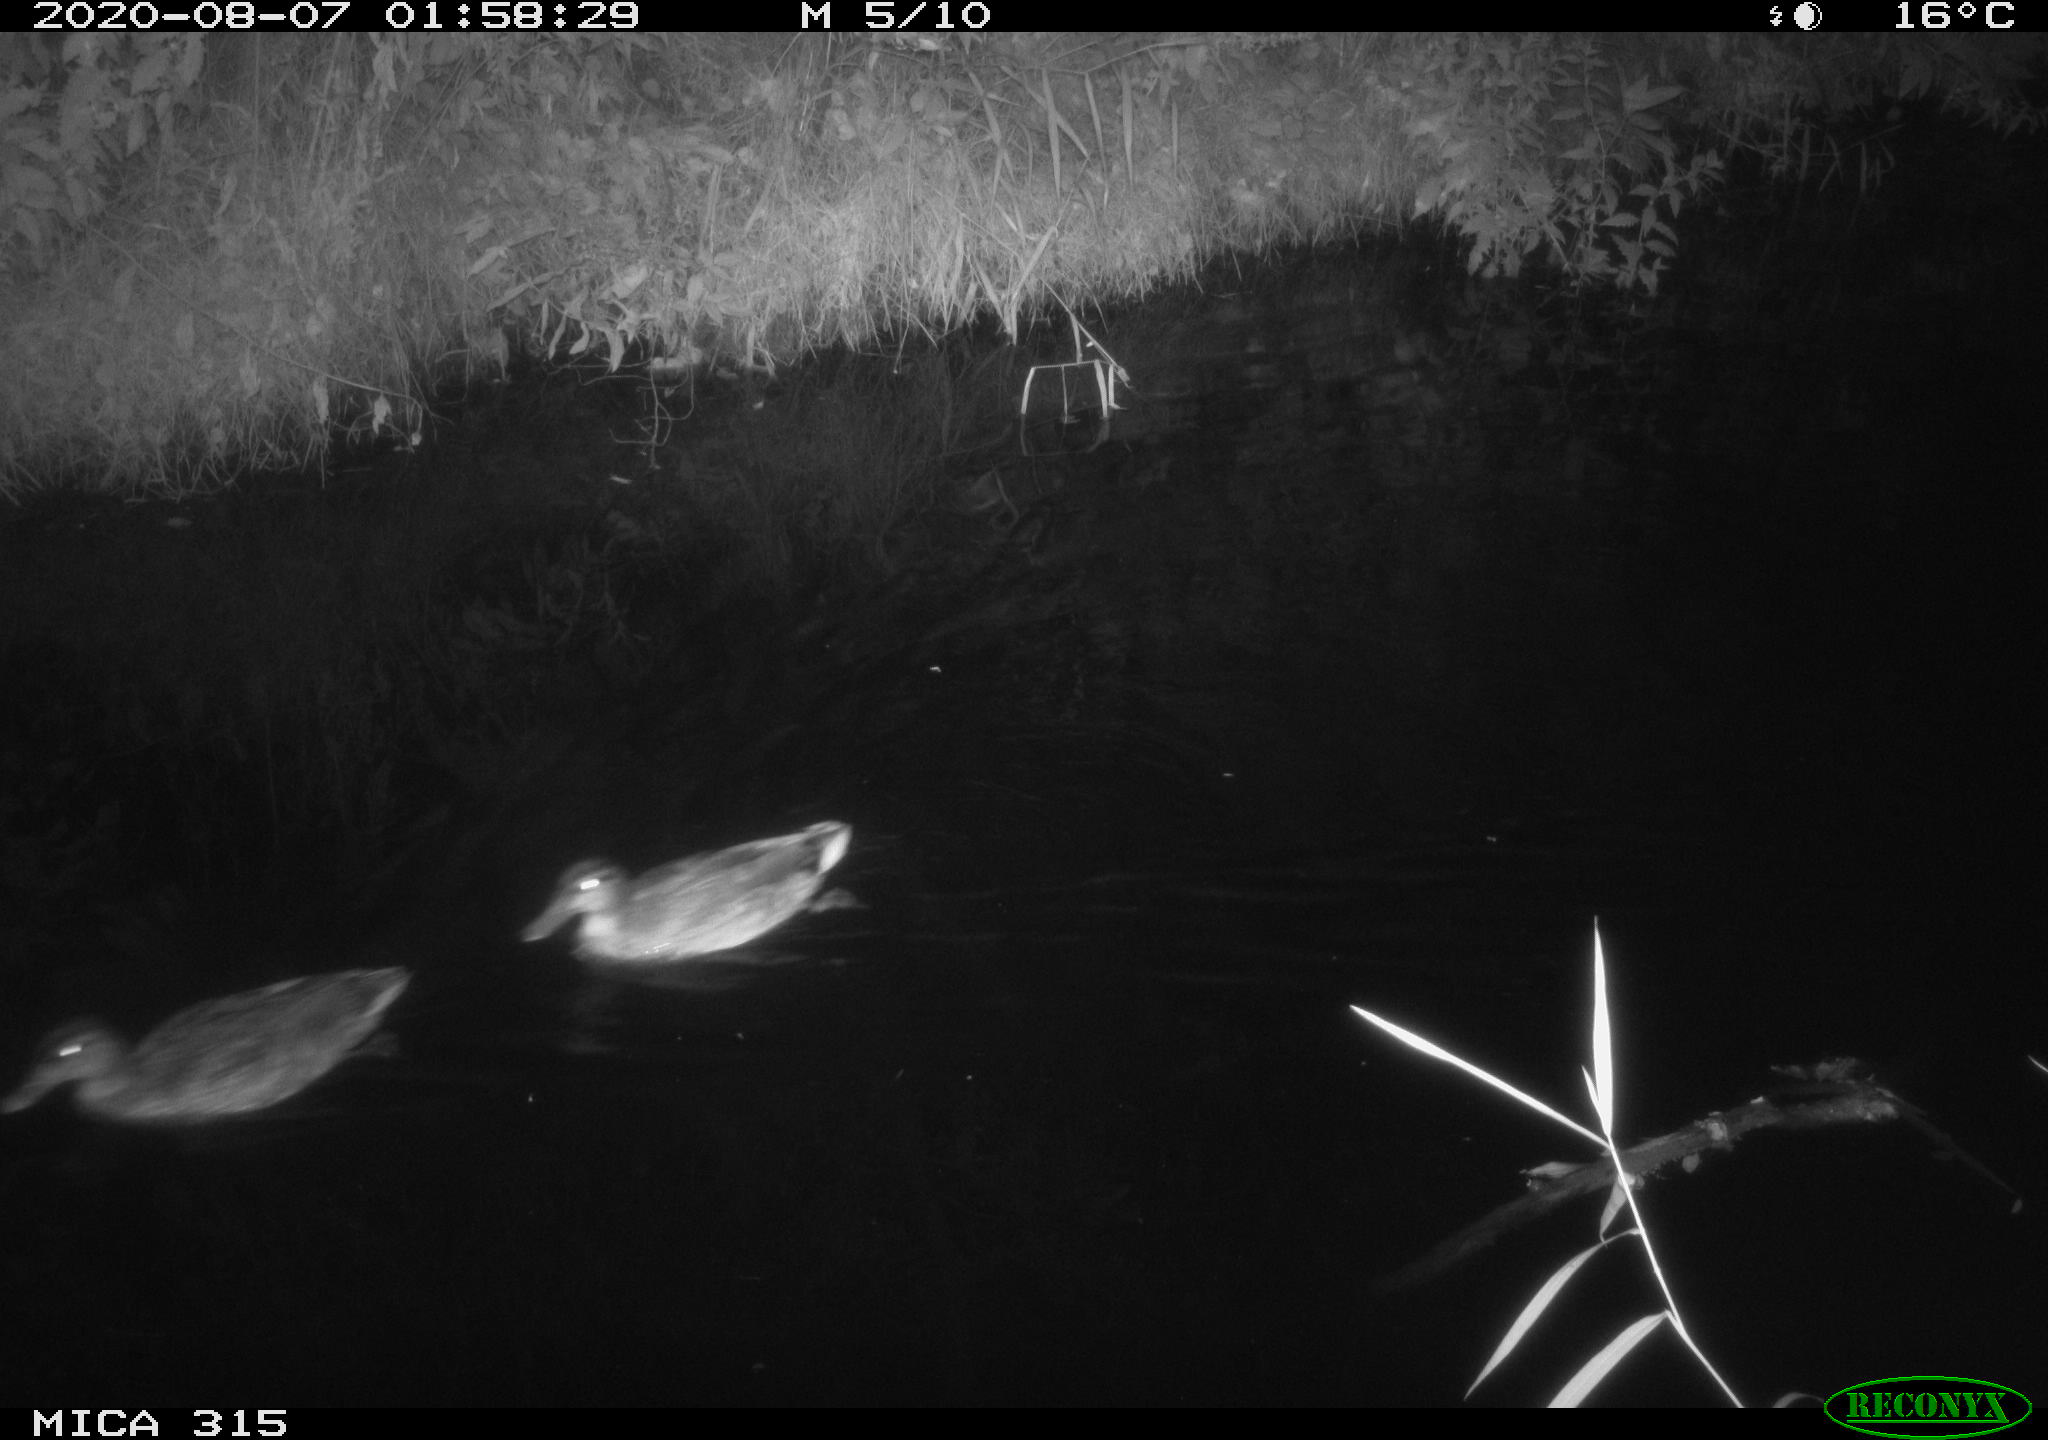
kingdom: Animalia
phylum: Chordata
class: Aves
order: Anseriformes
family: Anatidae
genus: Anas
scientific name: Anas platyrhynchos
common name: Mallard
